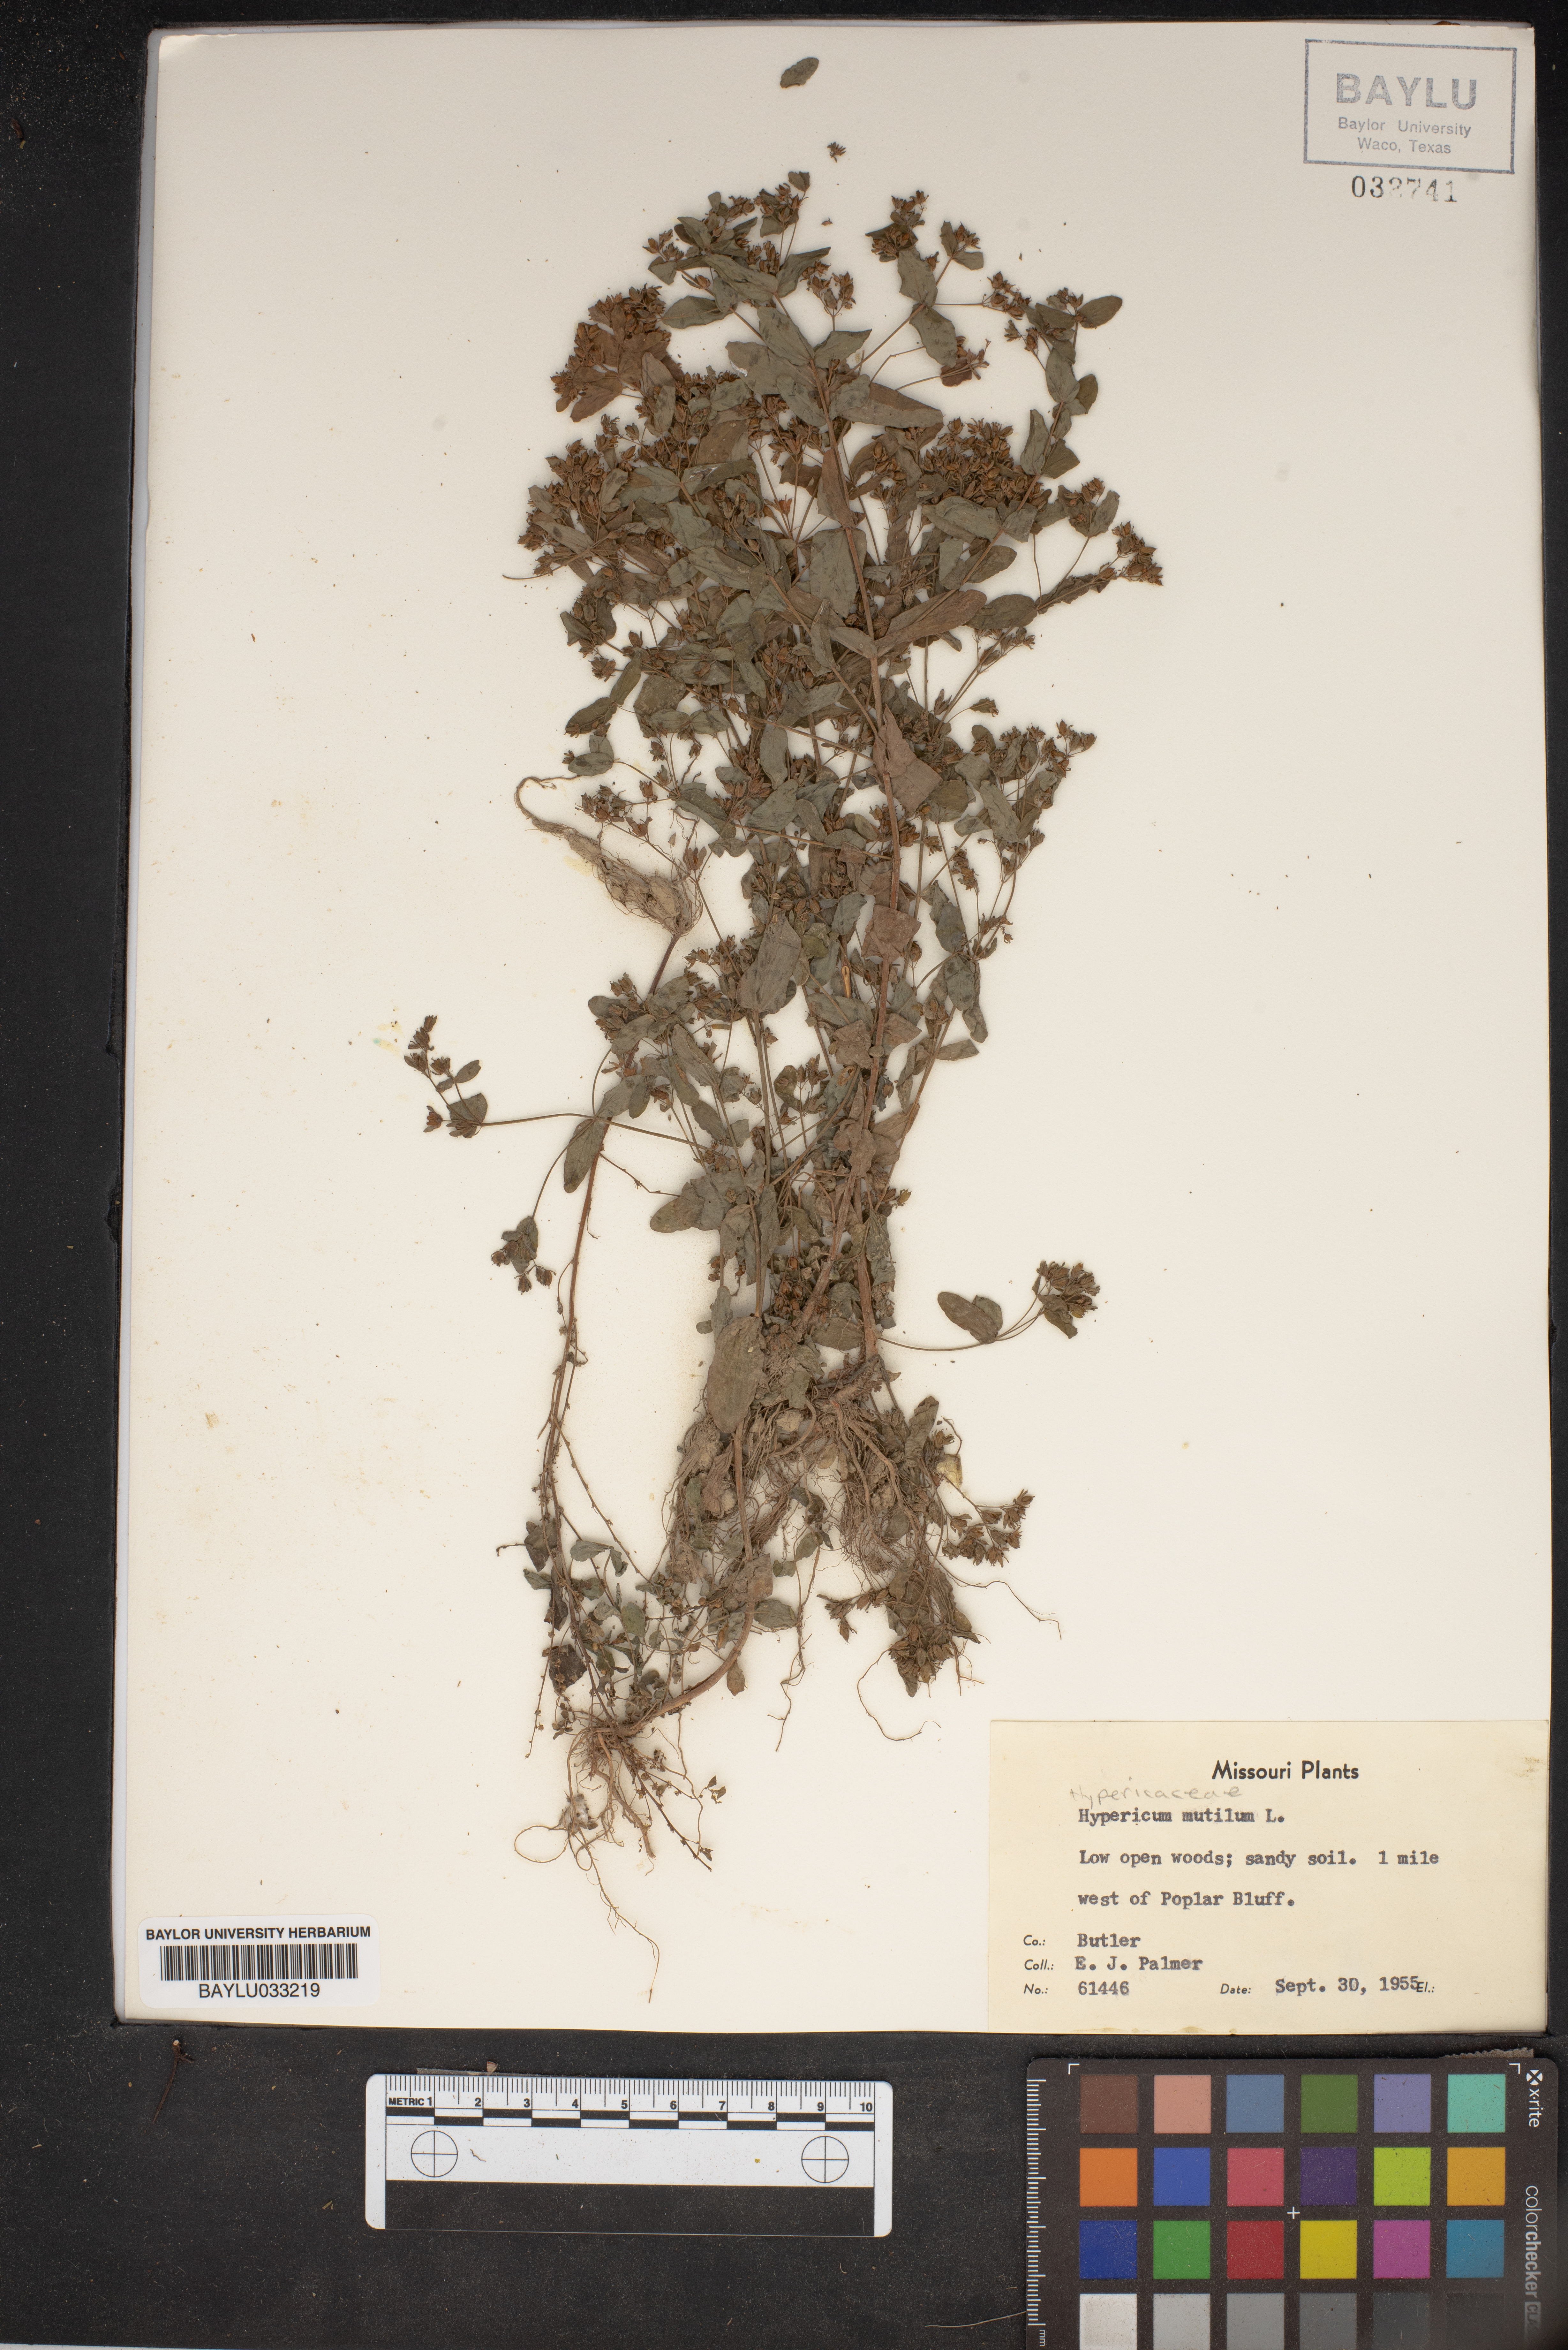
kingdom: Plantae
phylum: Tracheophyta
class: Magnoliopsida
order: Malpighiales
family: Hypericaceae
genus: Hypericum
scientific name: Hypericum mutilum
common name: Dwarf st. john's-wort
